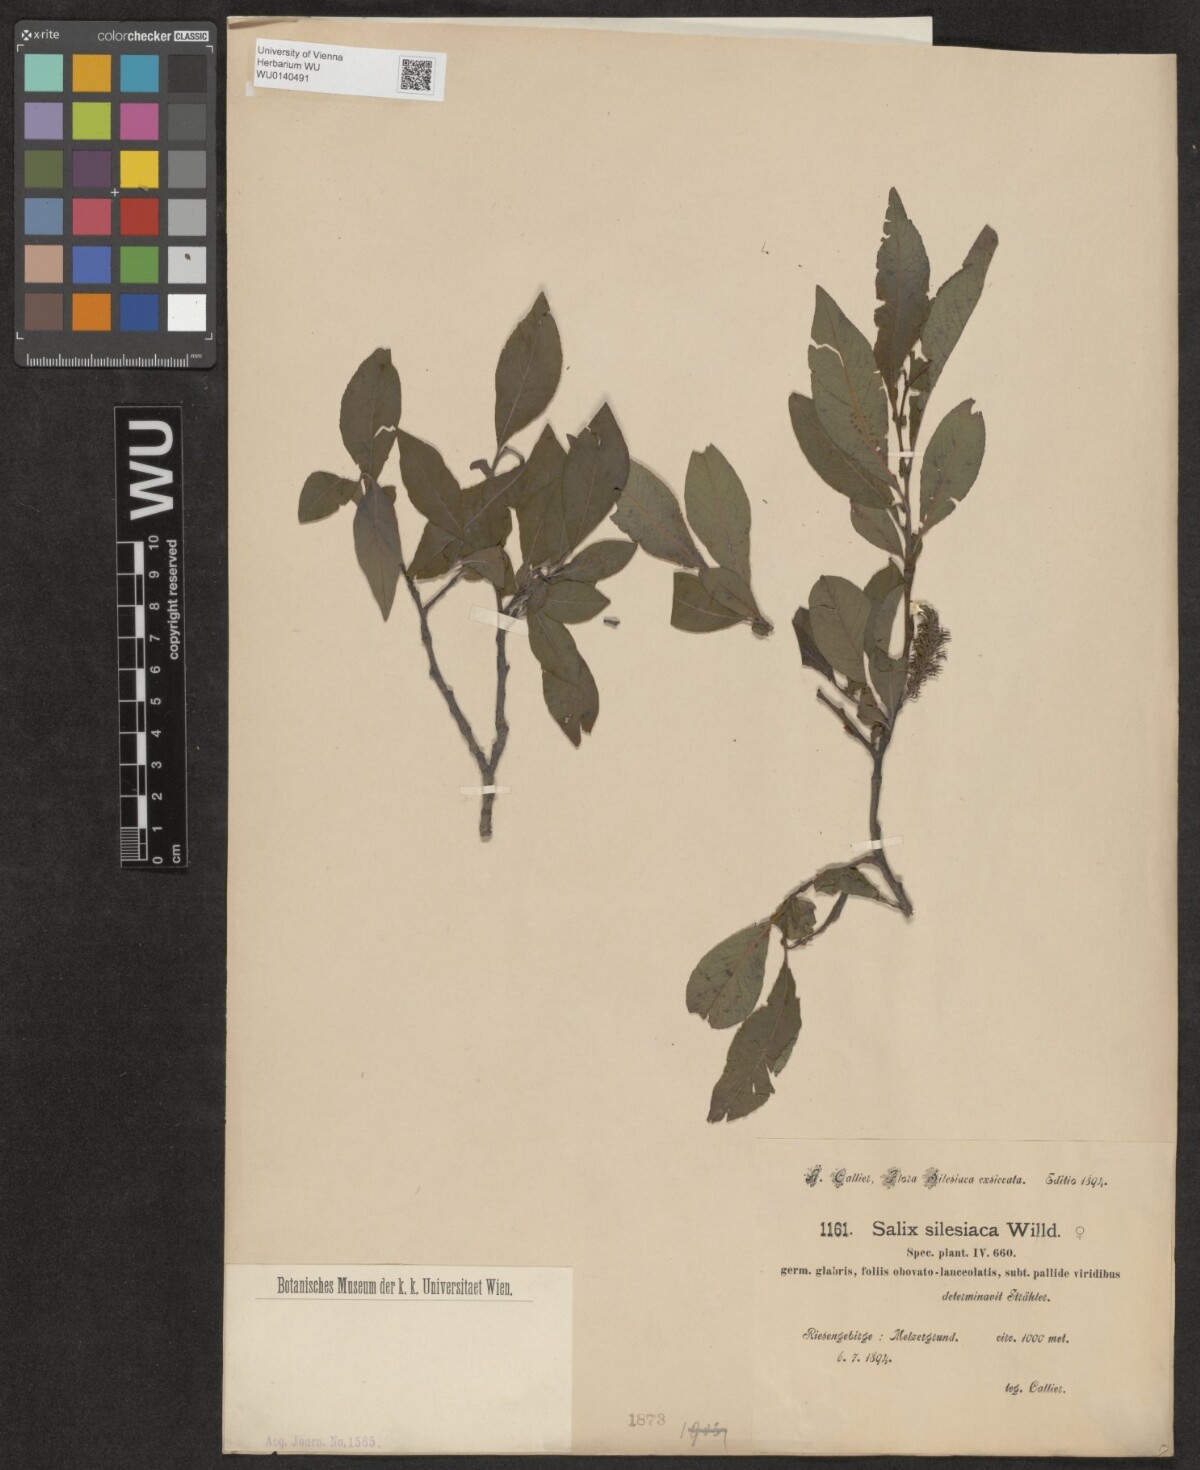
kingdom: Plantae
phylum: Tracheophyta
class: Magnoliopsida
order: Malpighiales
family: Salicaceae
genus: Salix
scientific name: Salix silesiaca
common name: Silesian willow
